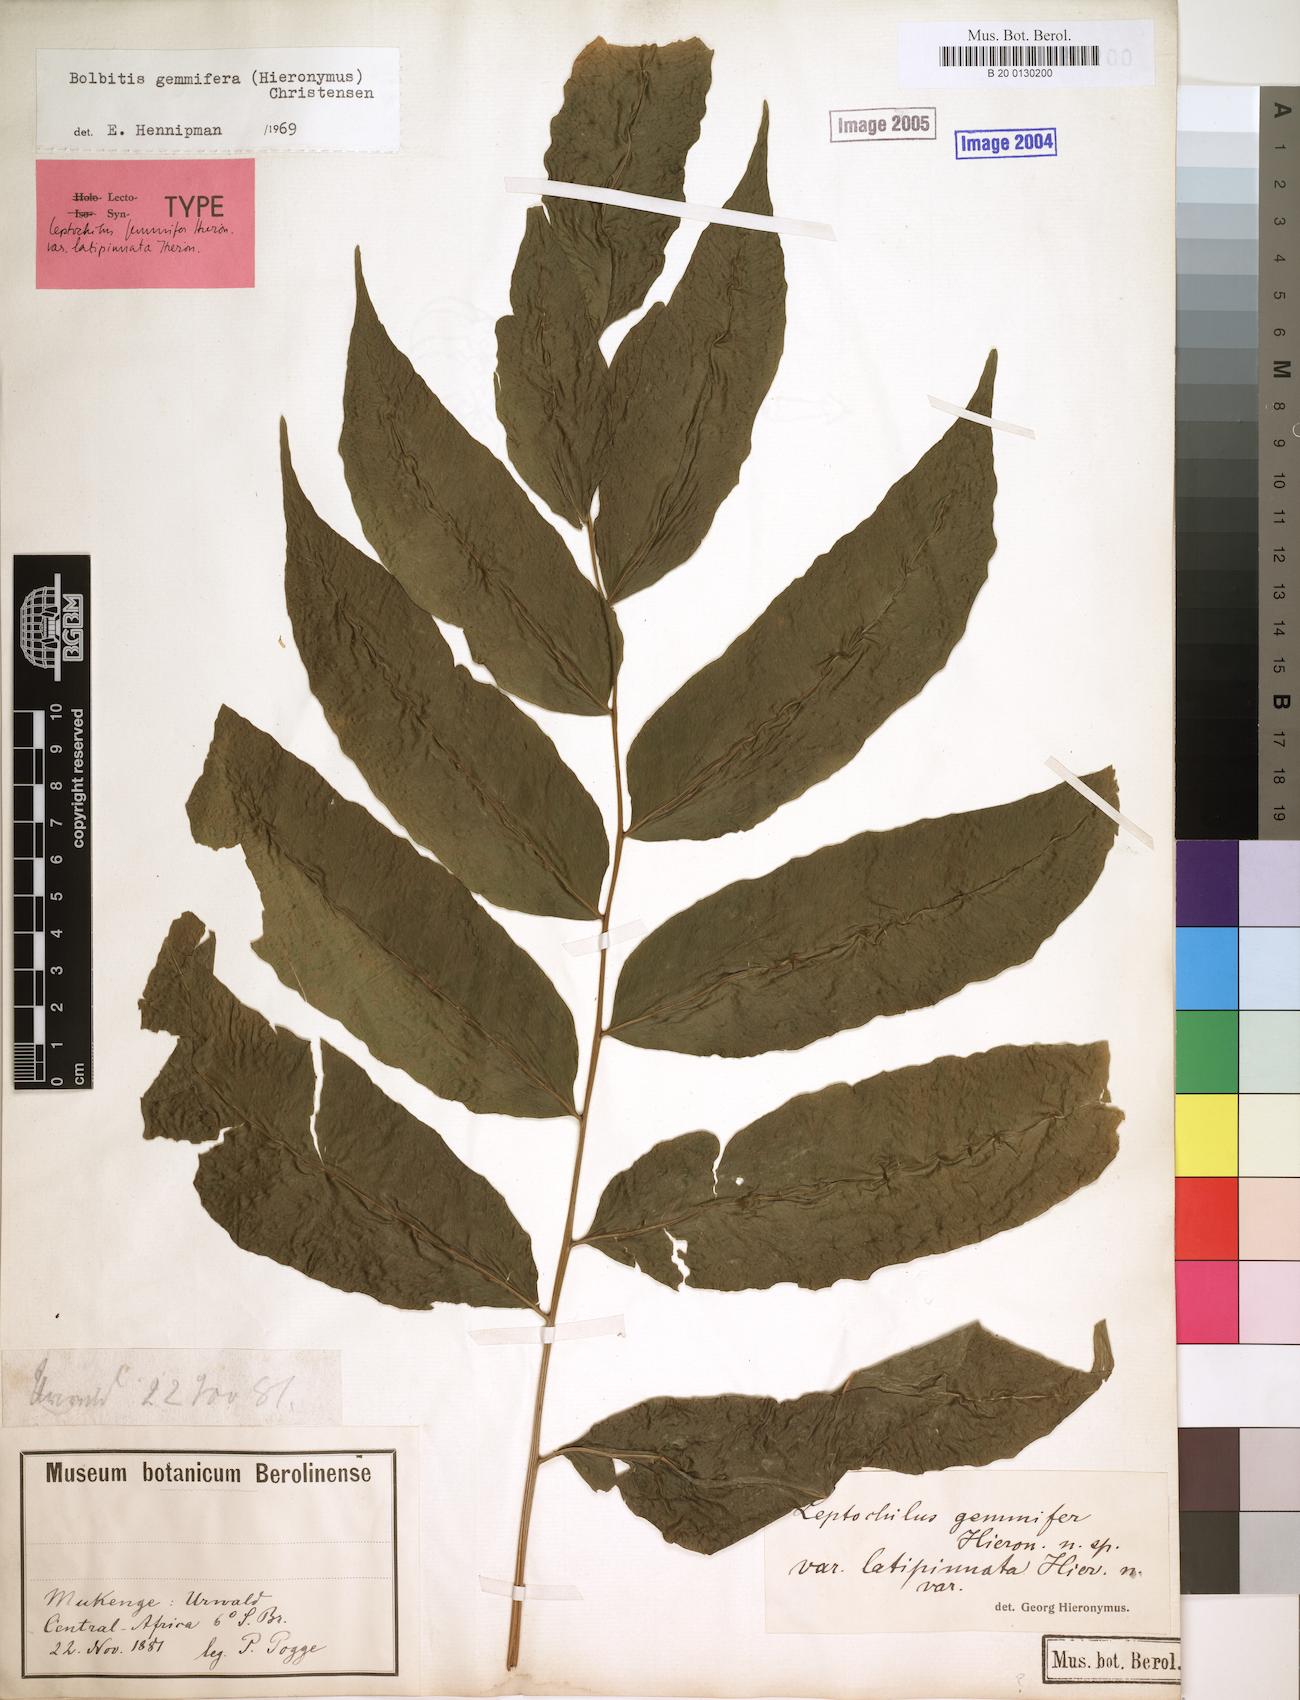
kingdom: Plantae
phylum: Tracheophyta
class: Polypodiopsida
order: Polypodiales
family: Dryopteridaceae
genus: Bolbitis
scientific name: Bolbitis gemmifer
